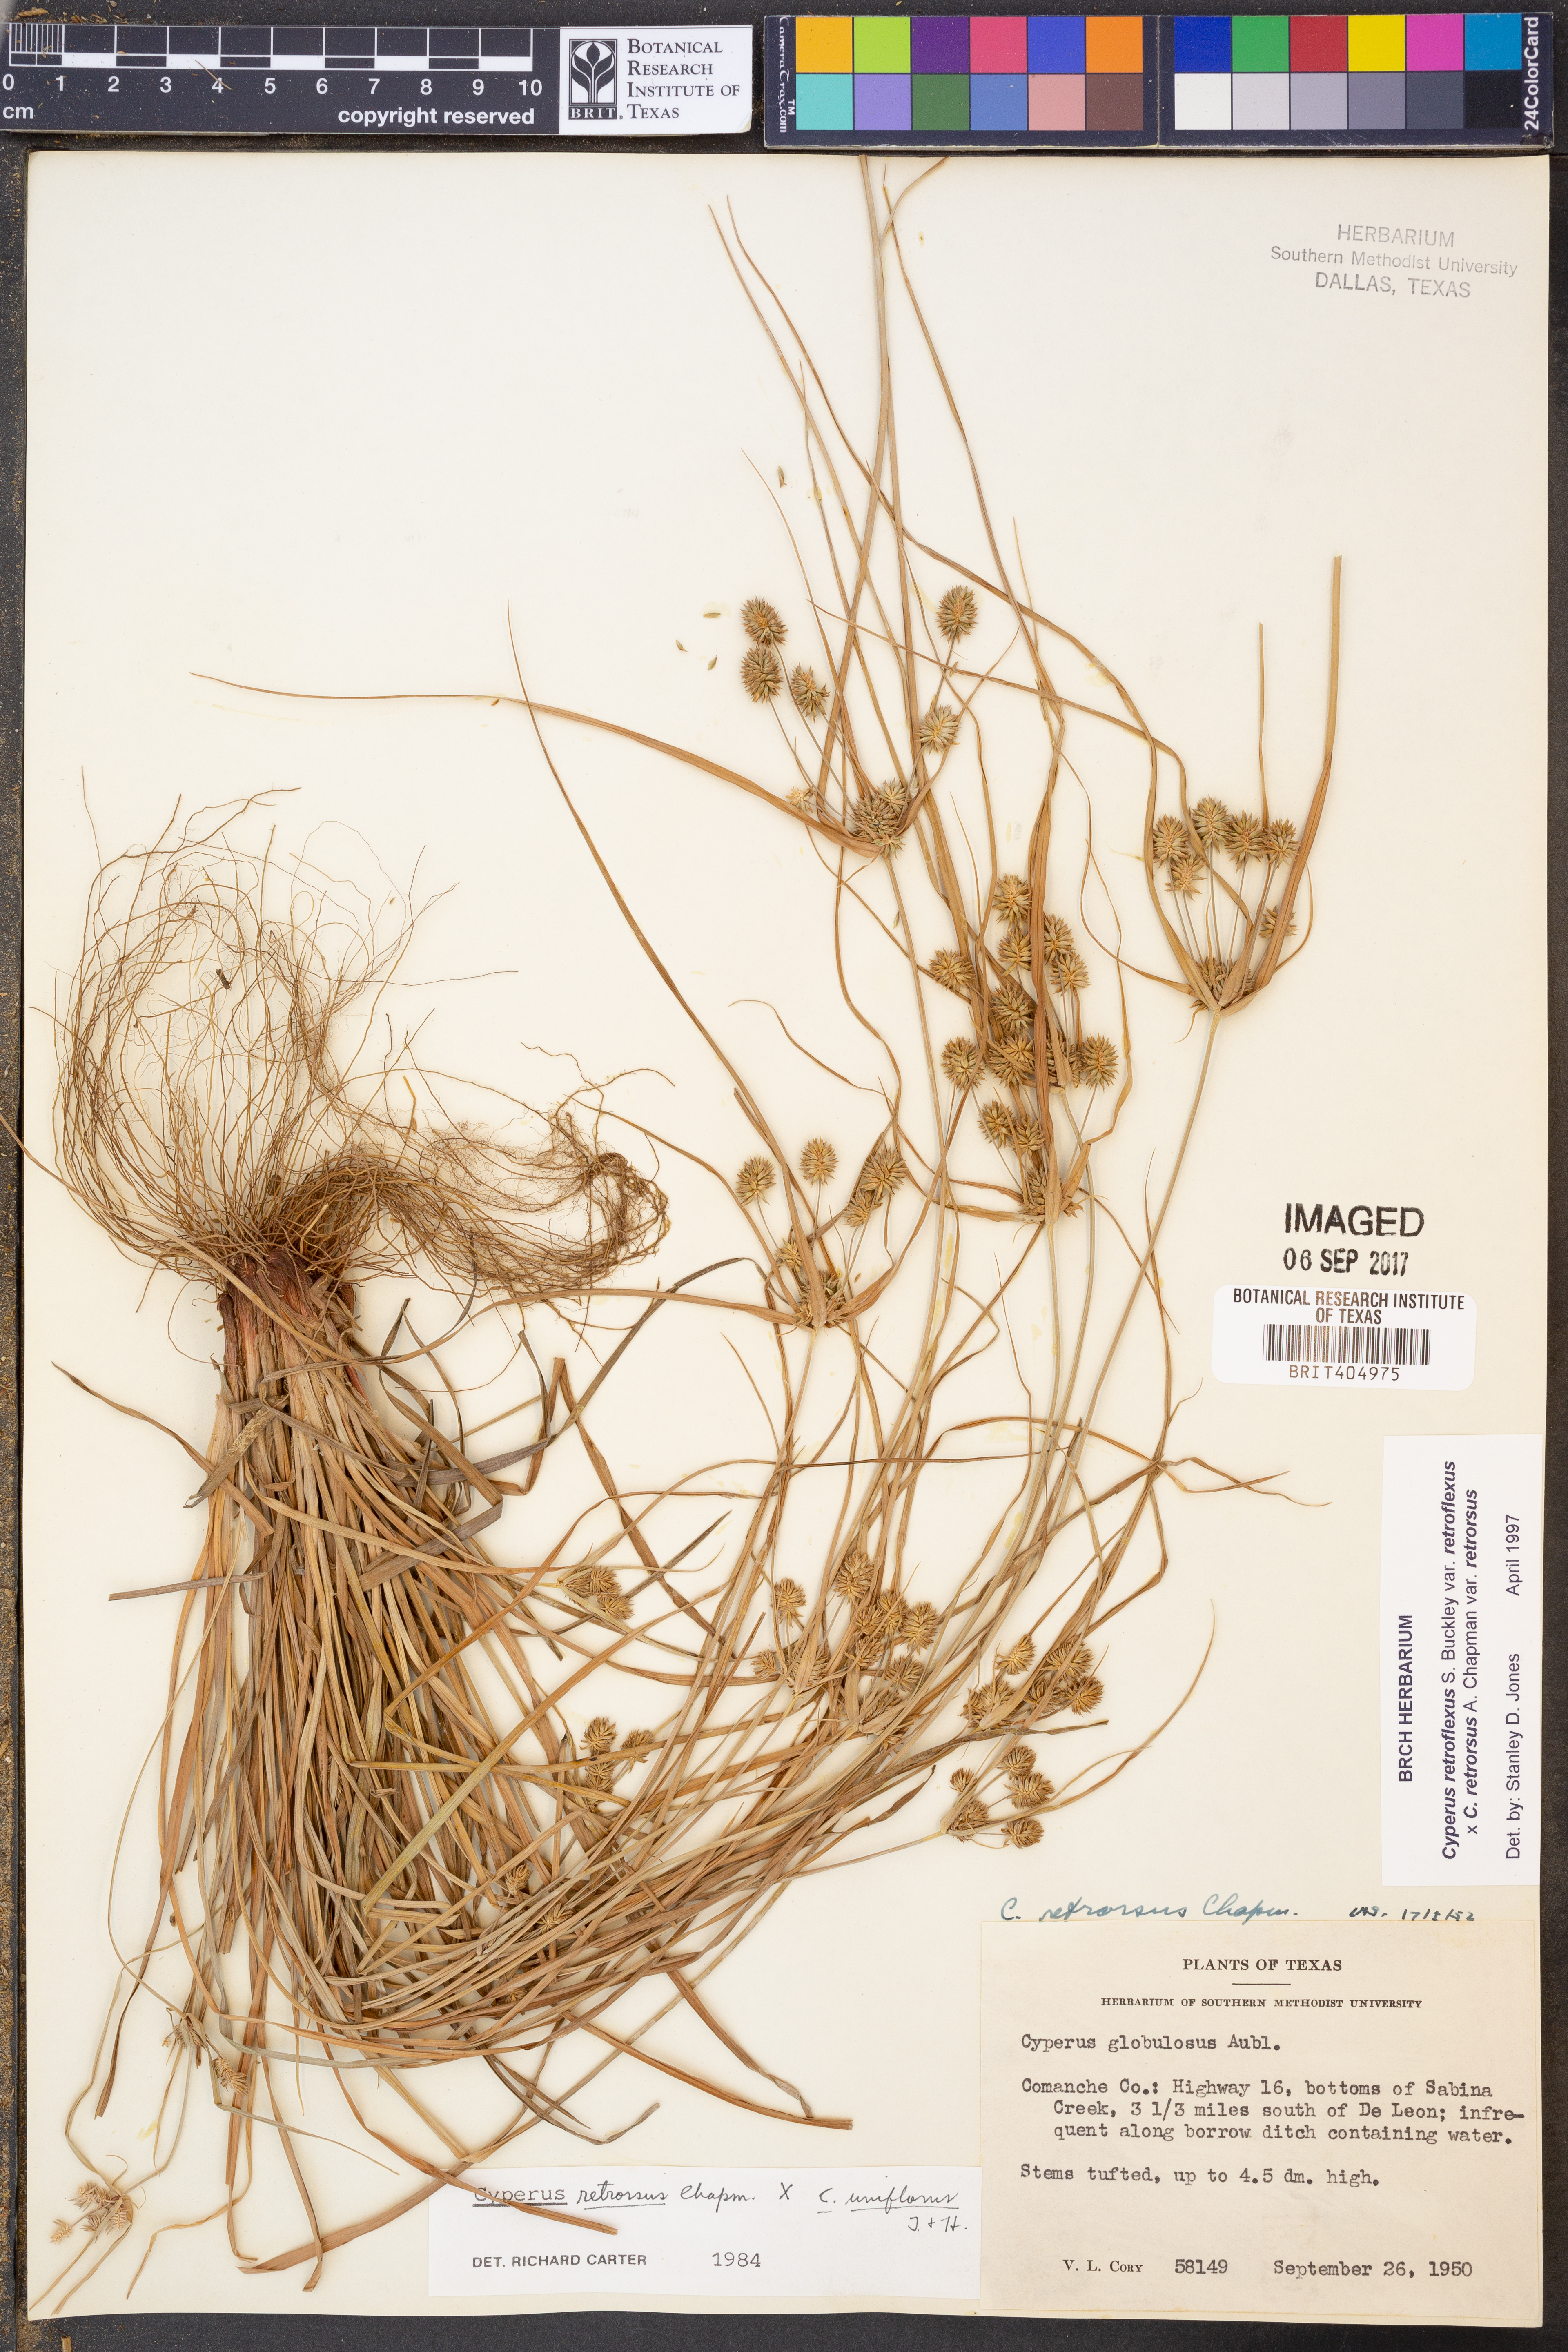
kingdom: Plantae
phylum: Tracheophyta
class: Liliopsida
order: Poales
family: Cyperaceae
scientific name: Cyperaceae
